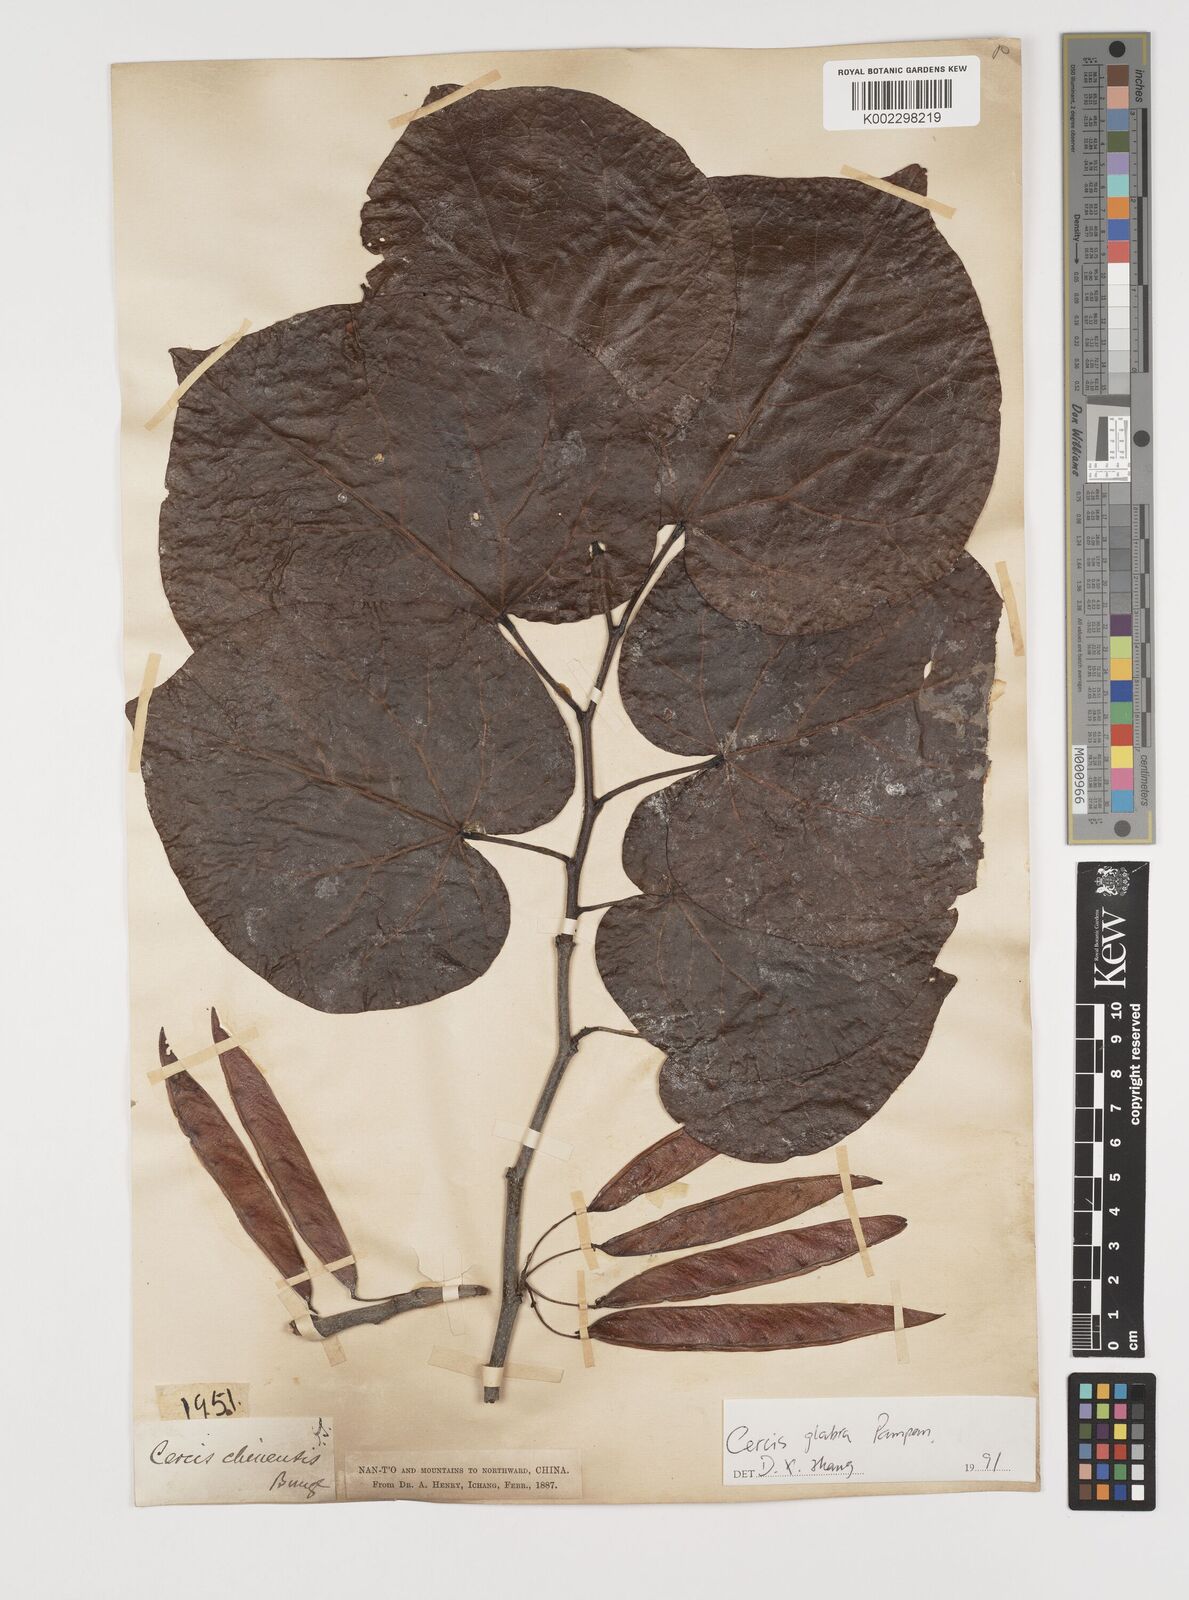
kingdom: Plantae
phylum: Tracheophyta
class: Magnoliopsida
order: Fabales
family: Fabaceae
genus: Cercis
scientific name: Cercis glabra
